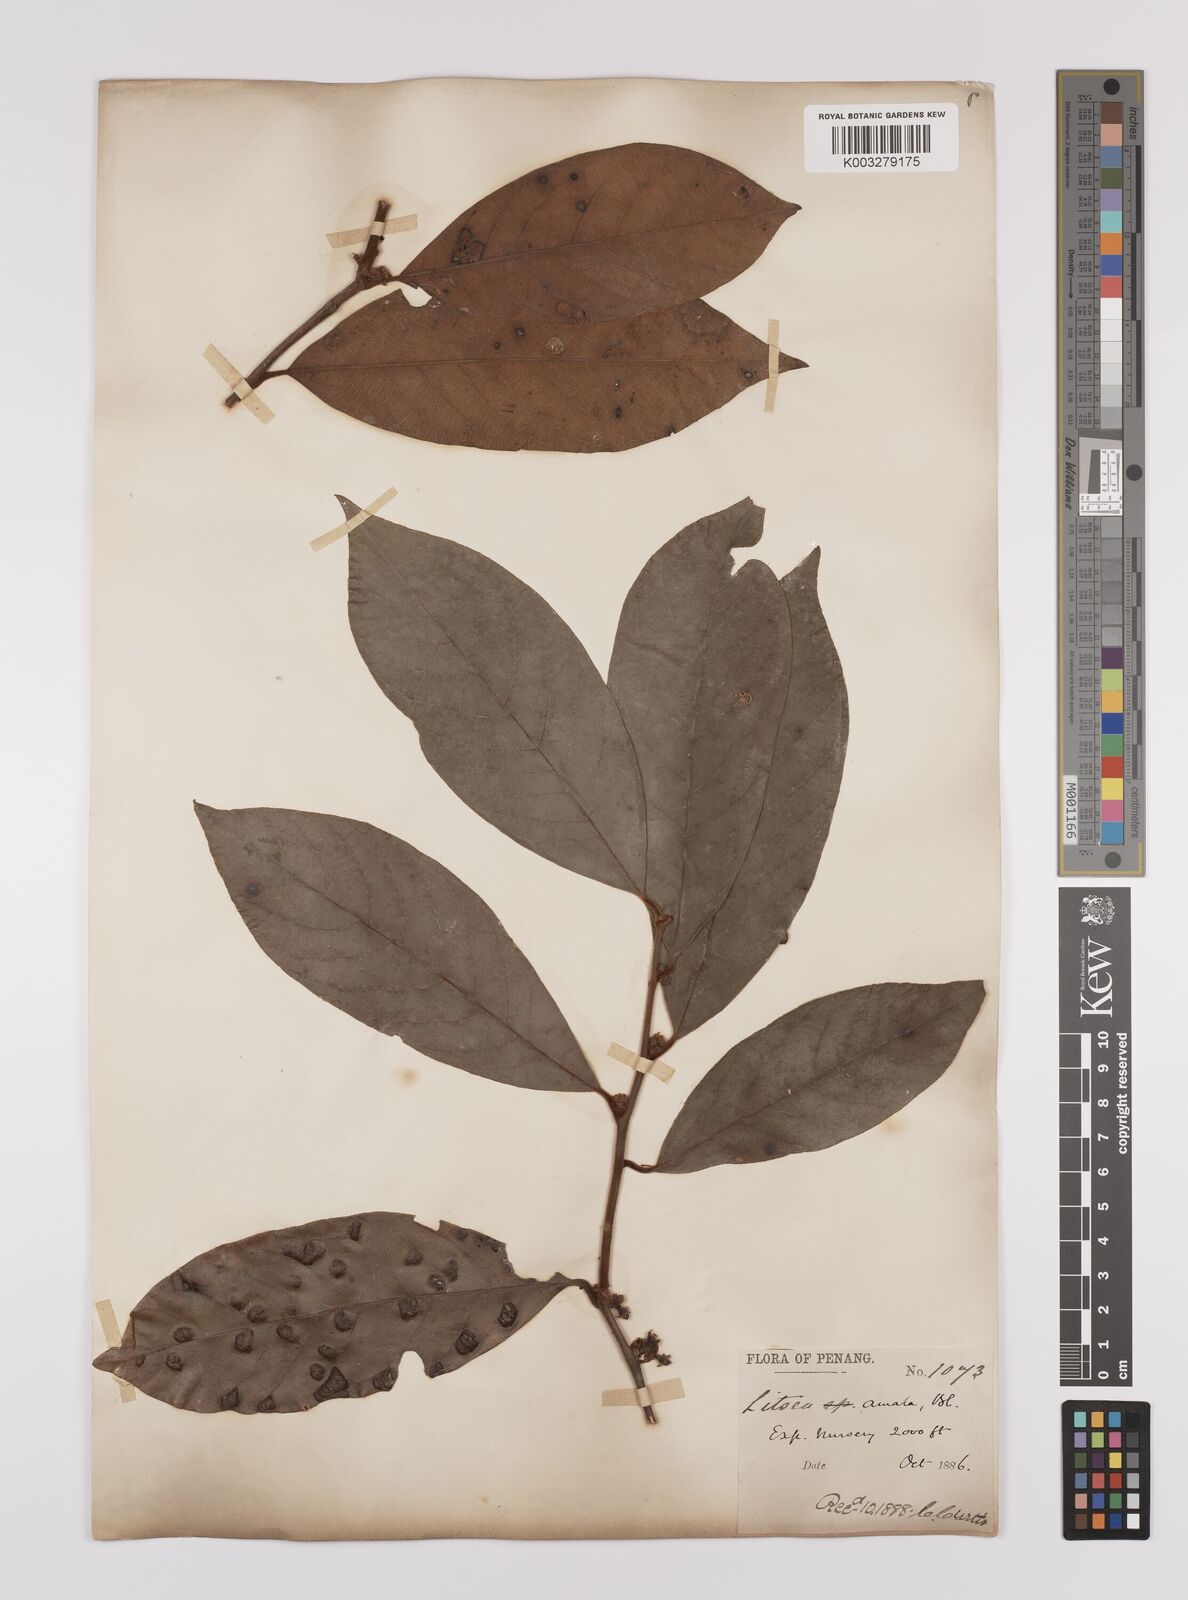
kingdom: Plantae
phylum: Tracheophyta
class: Magnoliopsida
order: Laurales
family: Lauraceae
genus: Litsea
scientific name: Litsea umbellata
